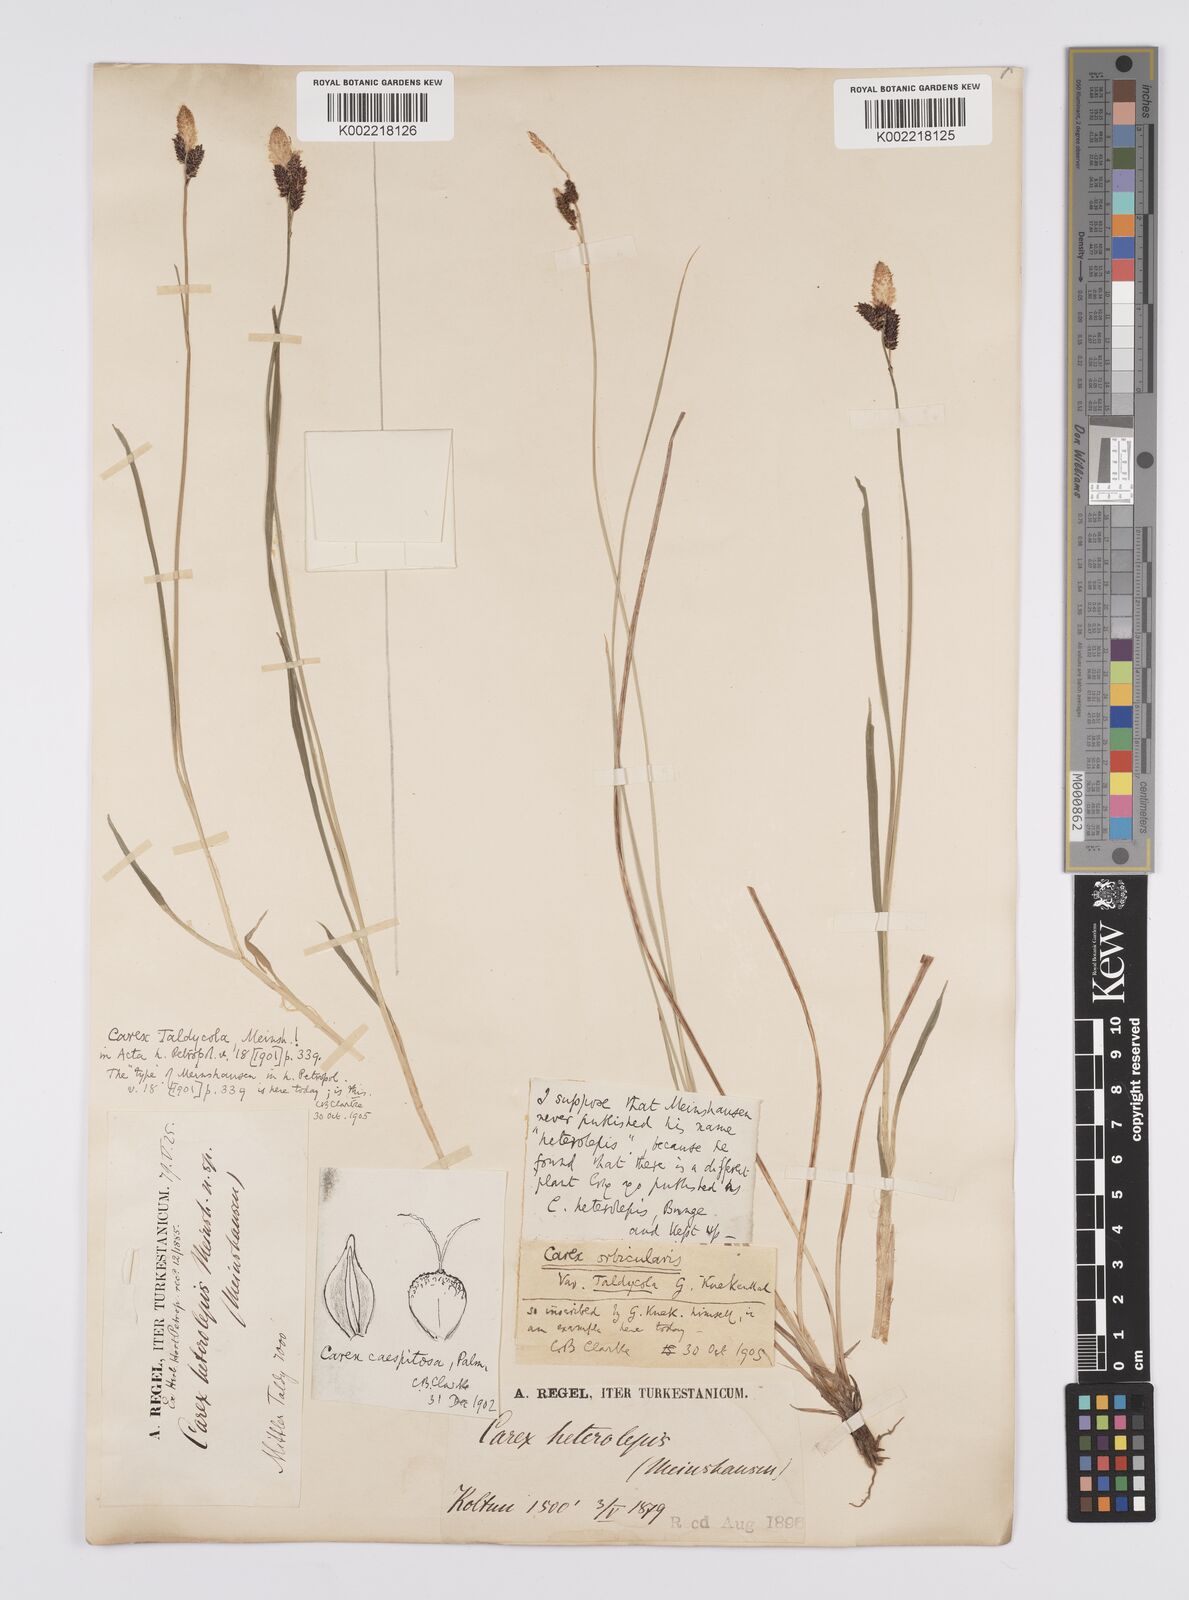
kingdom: Plantae
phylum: Tracheophyta
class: Liliopsida
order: Poales
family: Cyperaceae
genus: Carex
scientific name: Carex orbicularis
